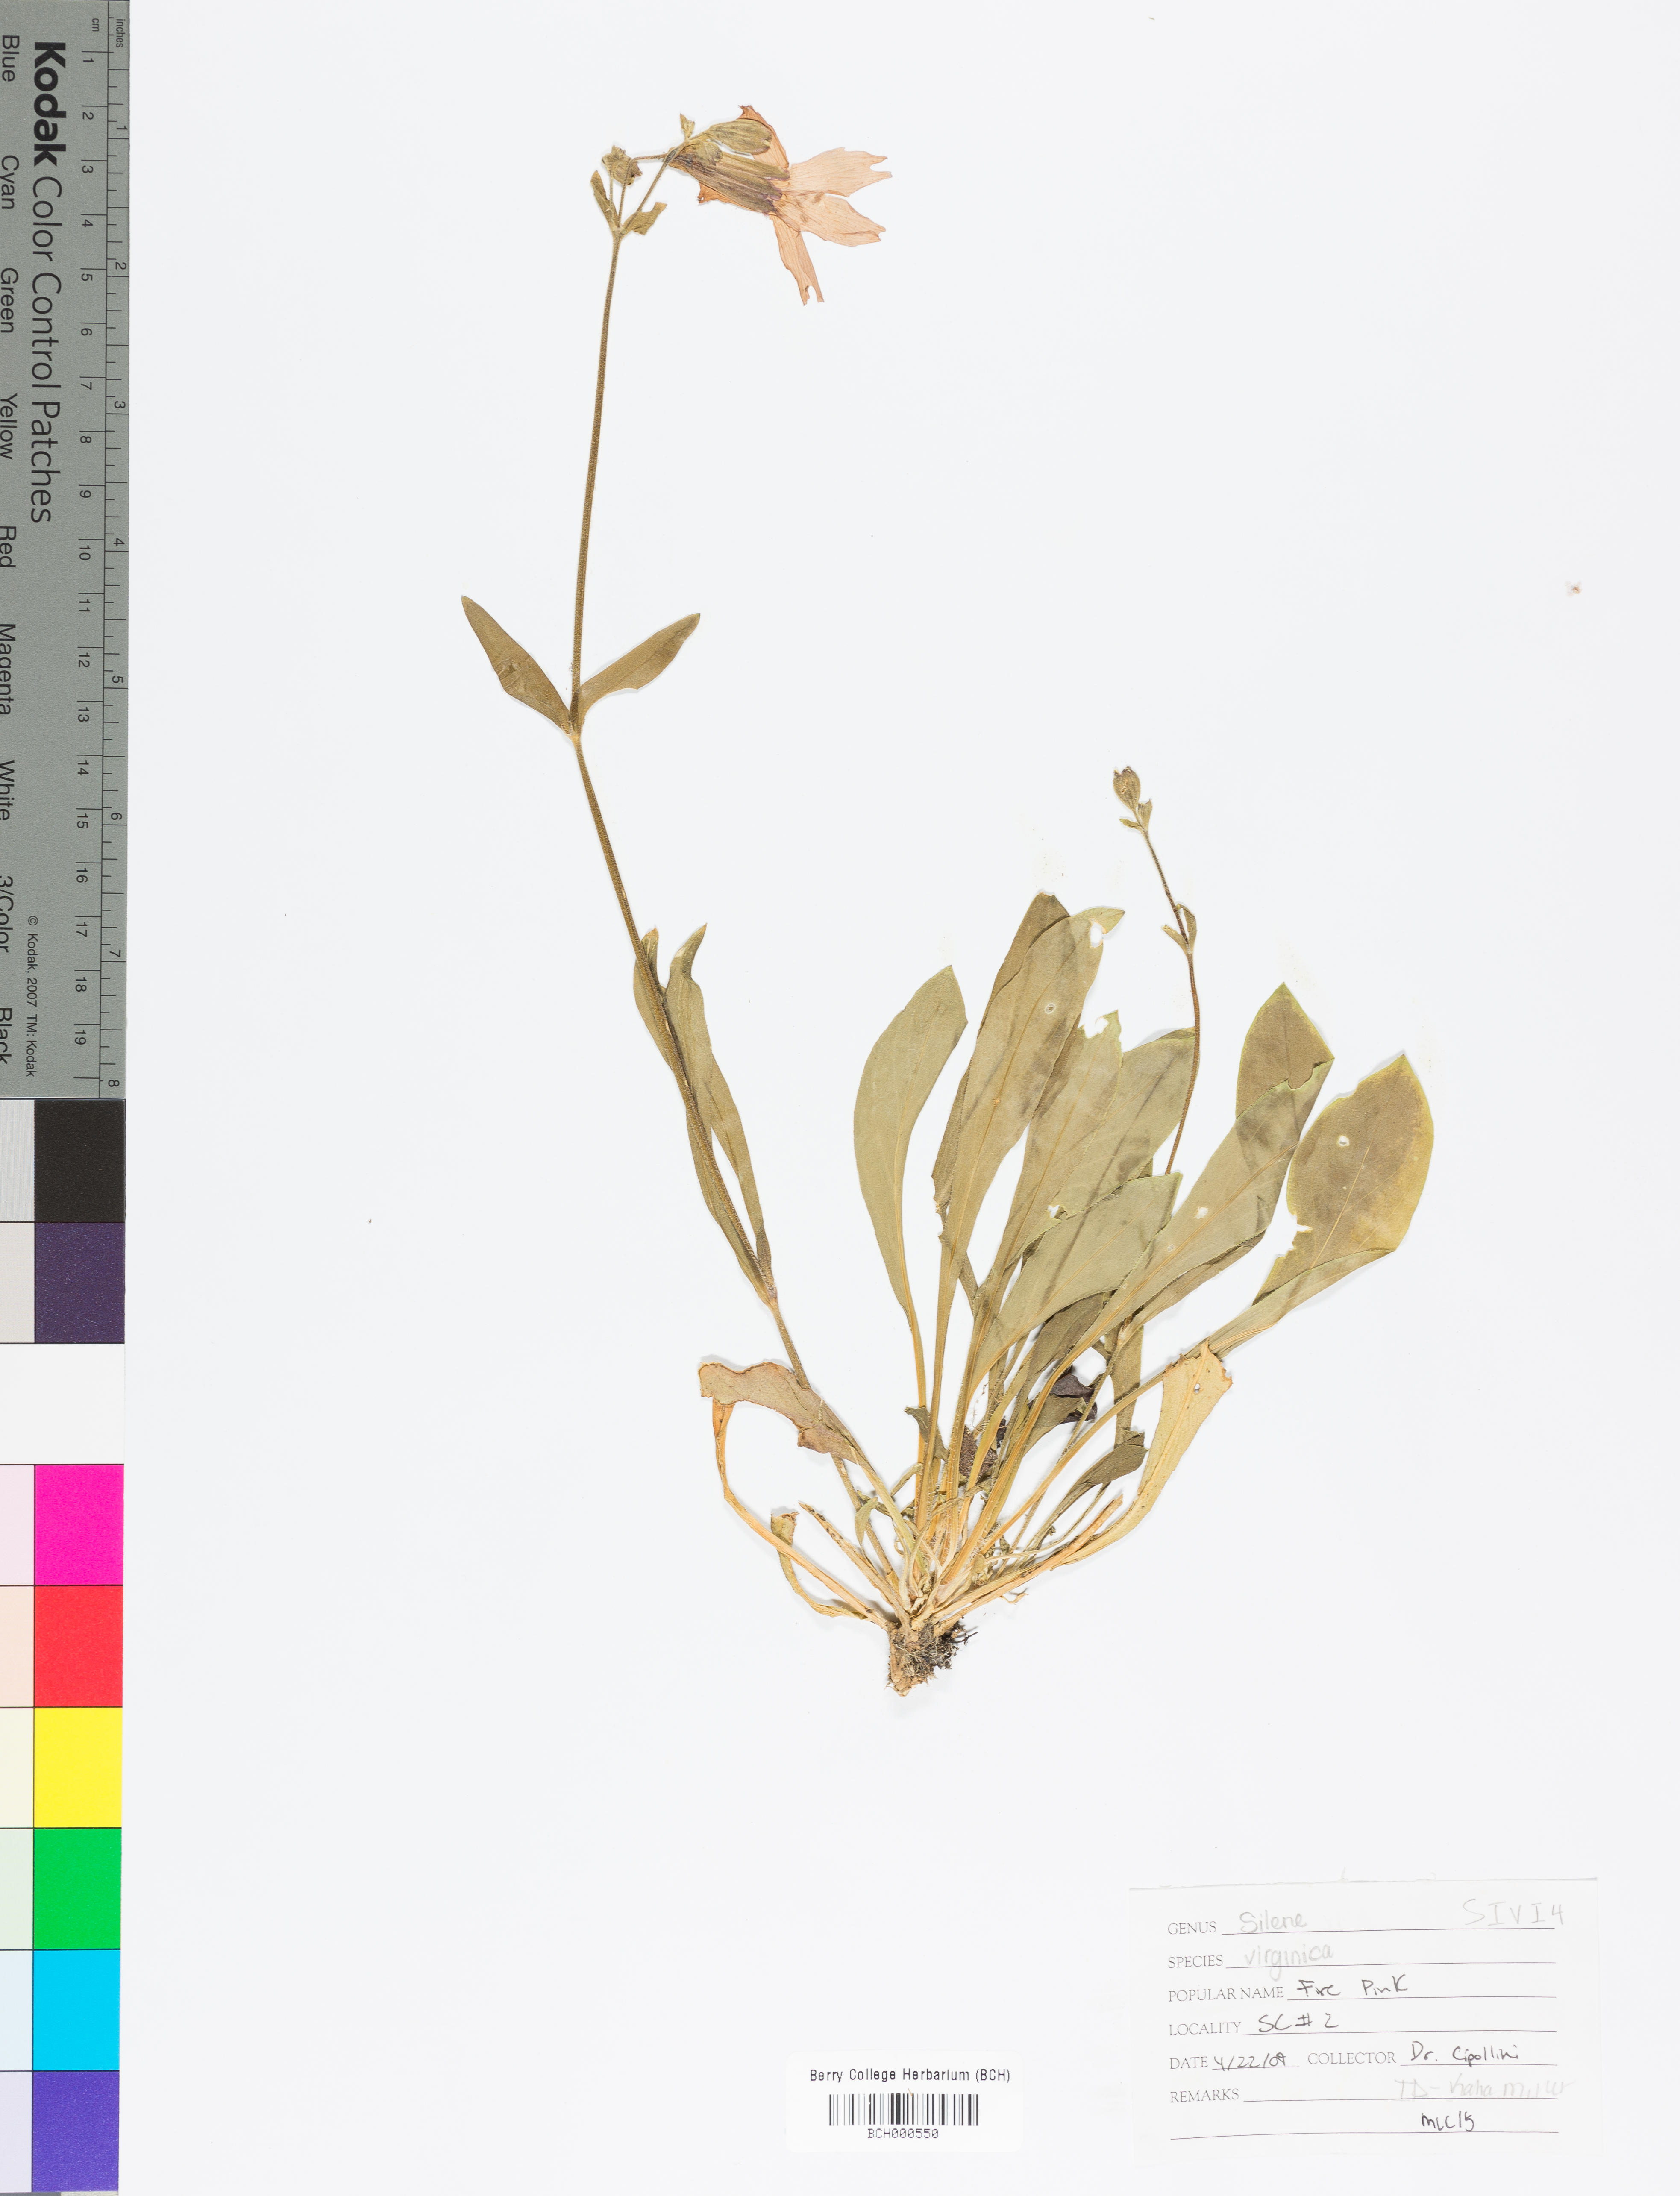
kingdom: Plantae
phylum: Tracheophyta
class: Magnoliopsida
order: Caryophyllales
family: Caryophyllaceae
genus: Silene
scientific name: Silene virginica
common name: Fire-pink
